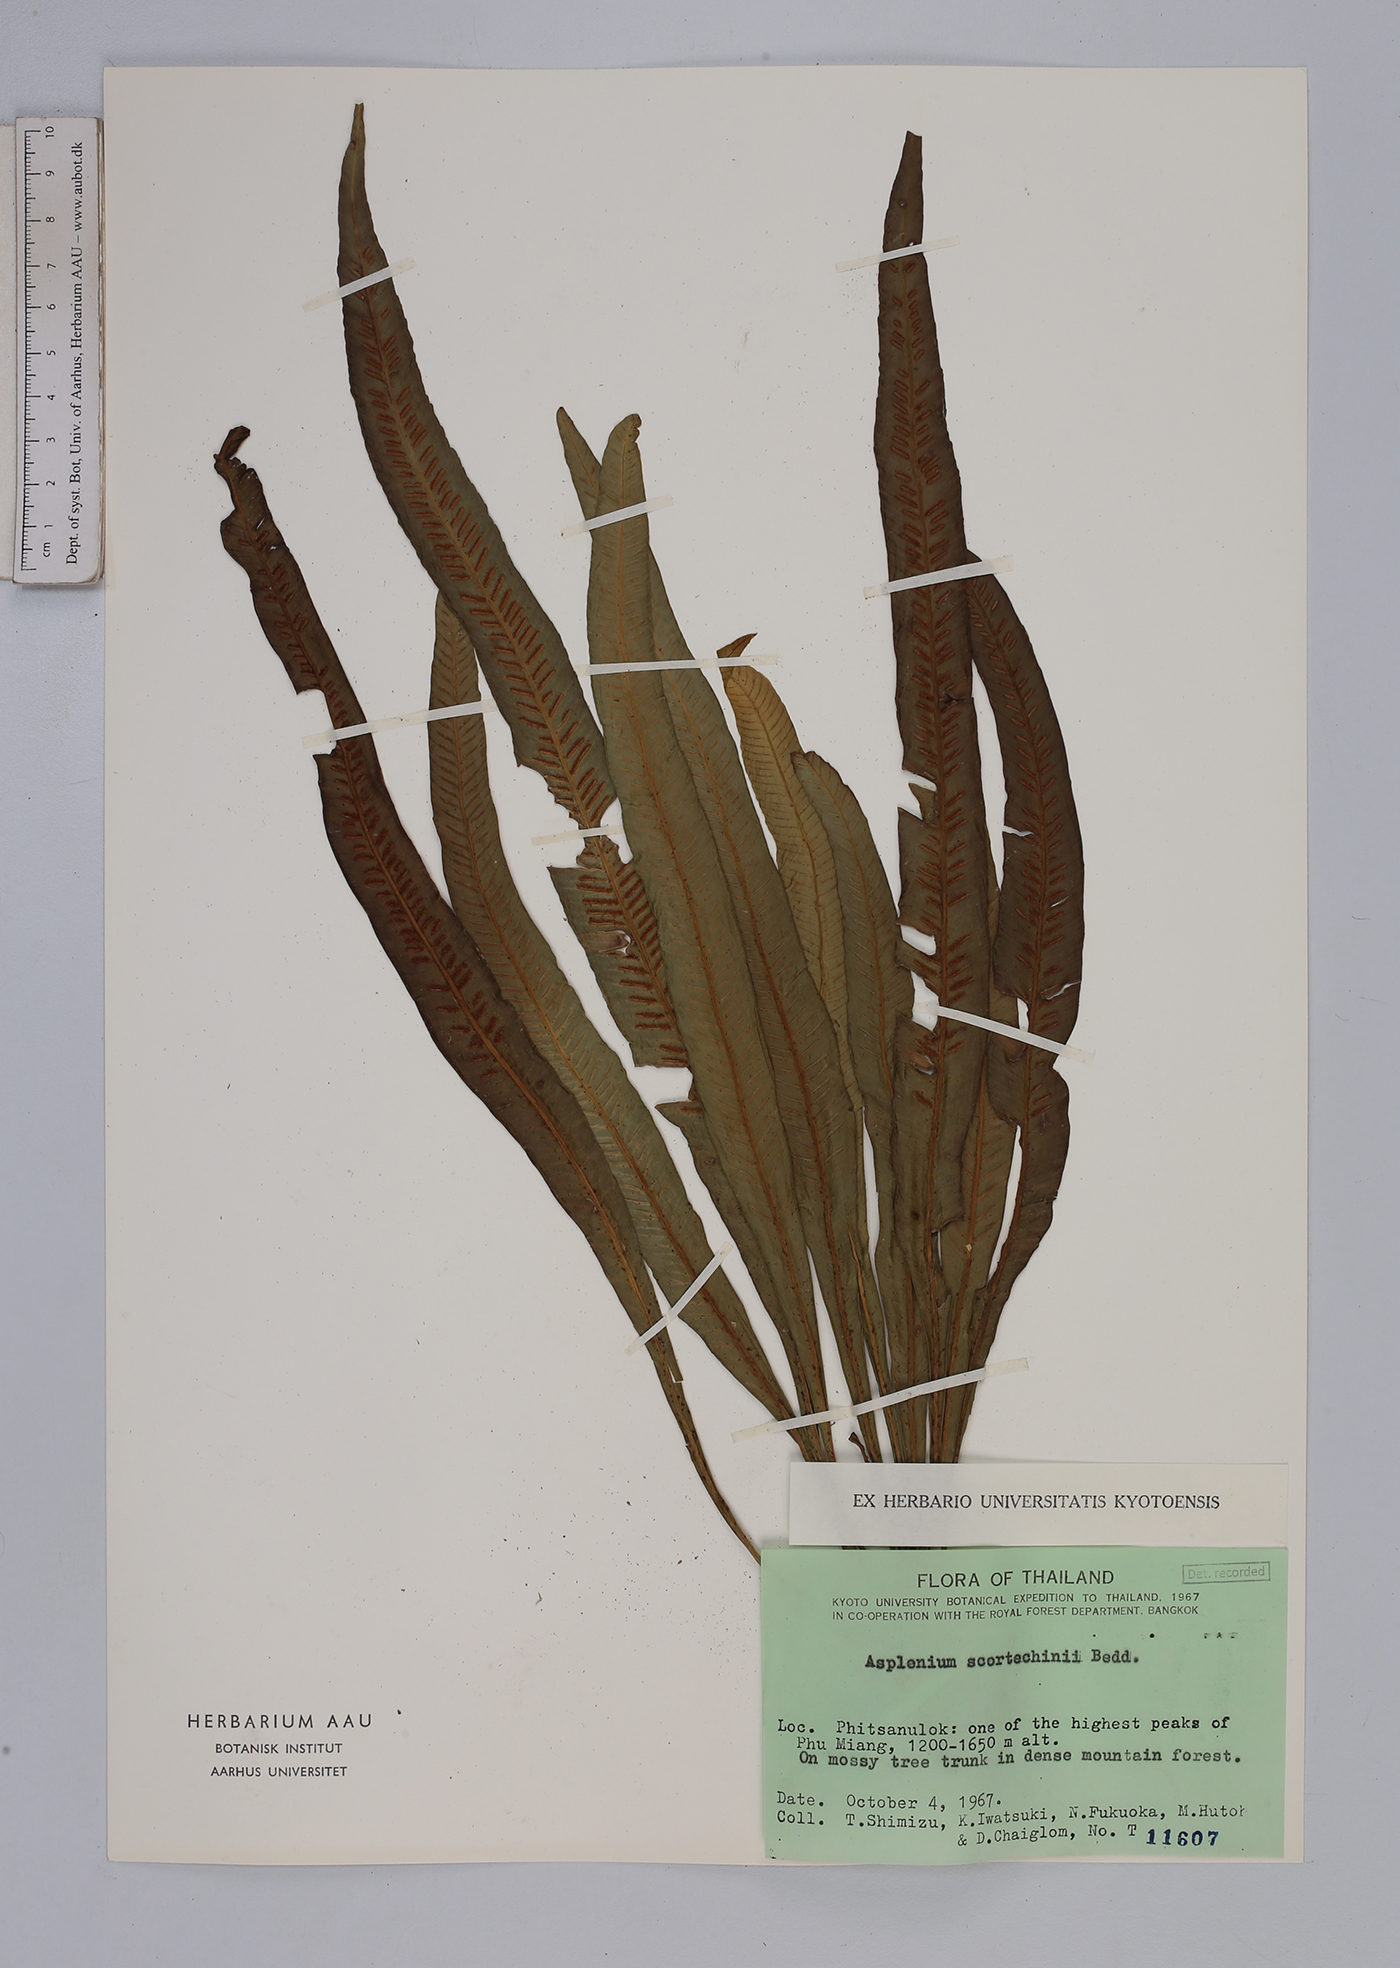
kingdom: Plantae
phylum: Tracheophyta
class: Polypodiopsida
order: Polypodiales
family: Aspleniaceae
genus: Asplenium
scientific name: Asplenium scortechinii
